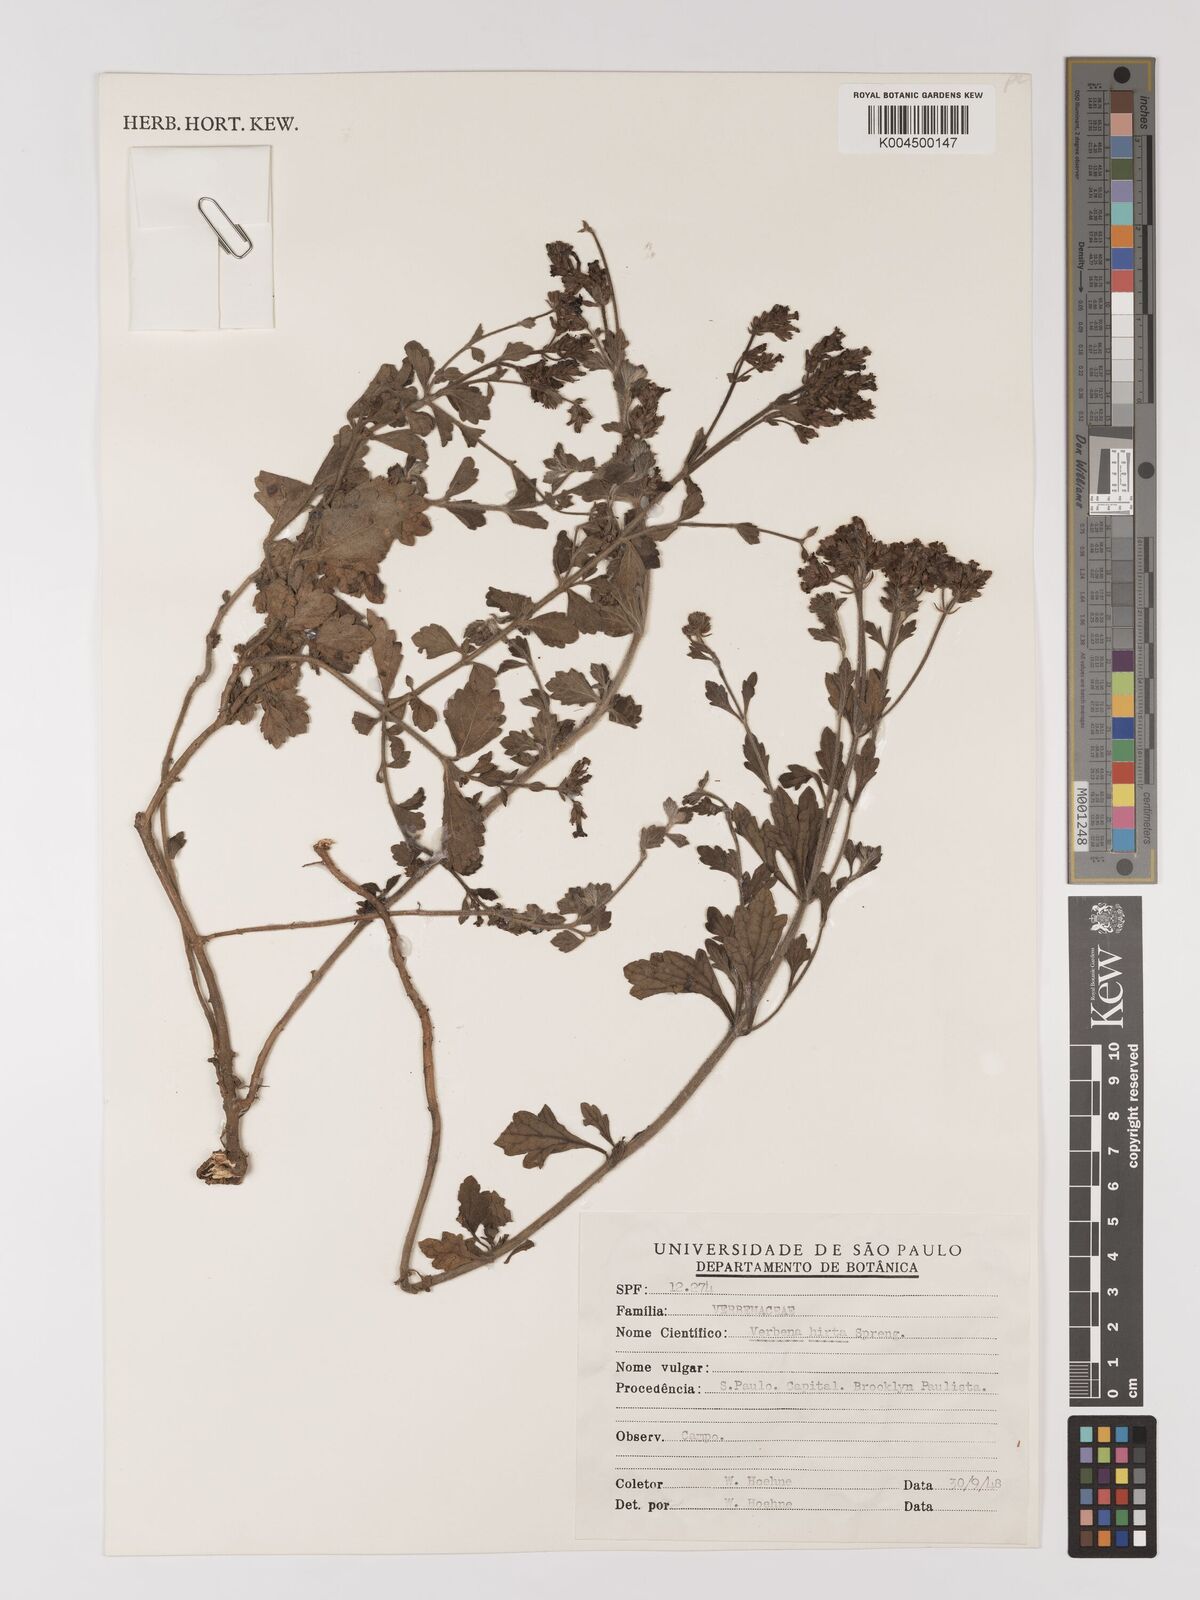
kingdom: Plantae
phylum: Tracheophyta
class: Magnoliopsida
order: Lamiales
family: Verbenaceae
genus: Verbena
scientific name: Verbena hirta
